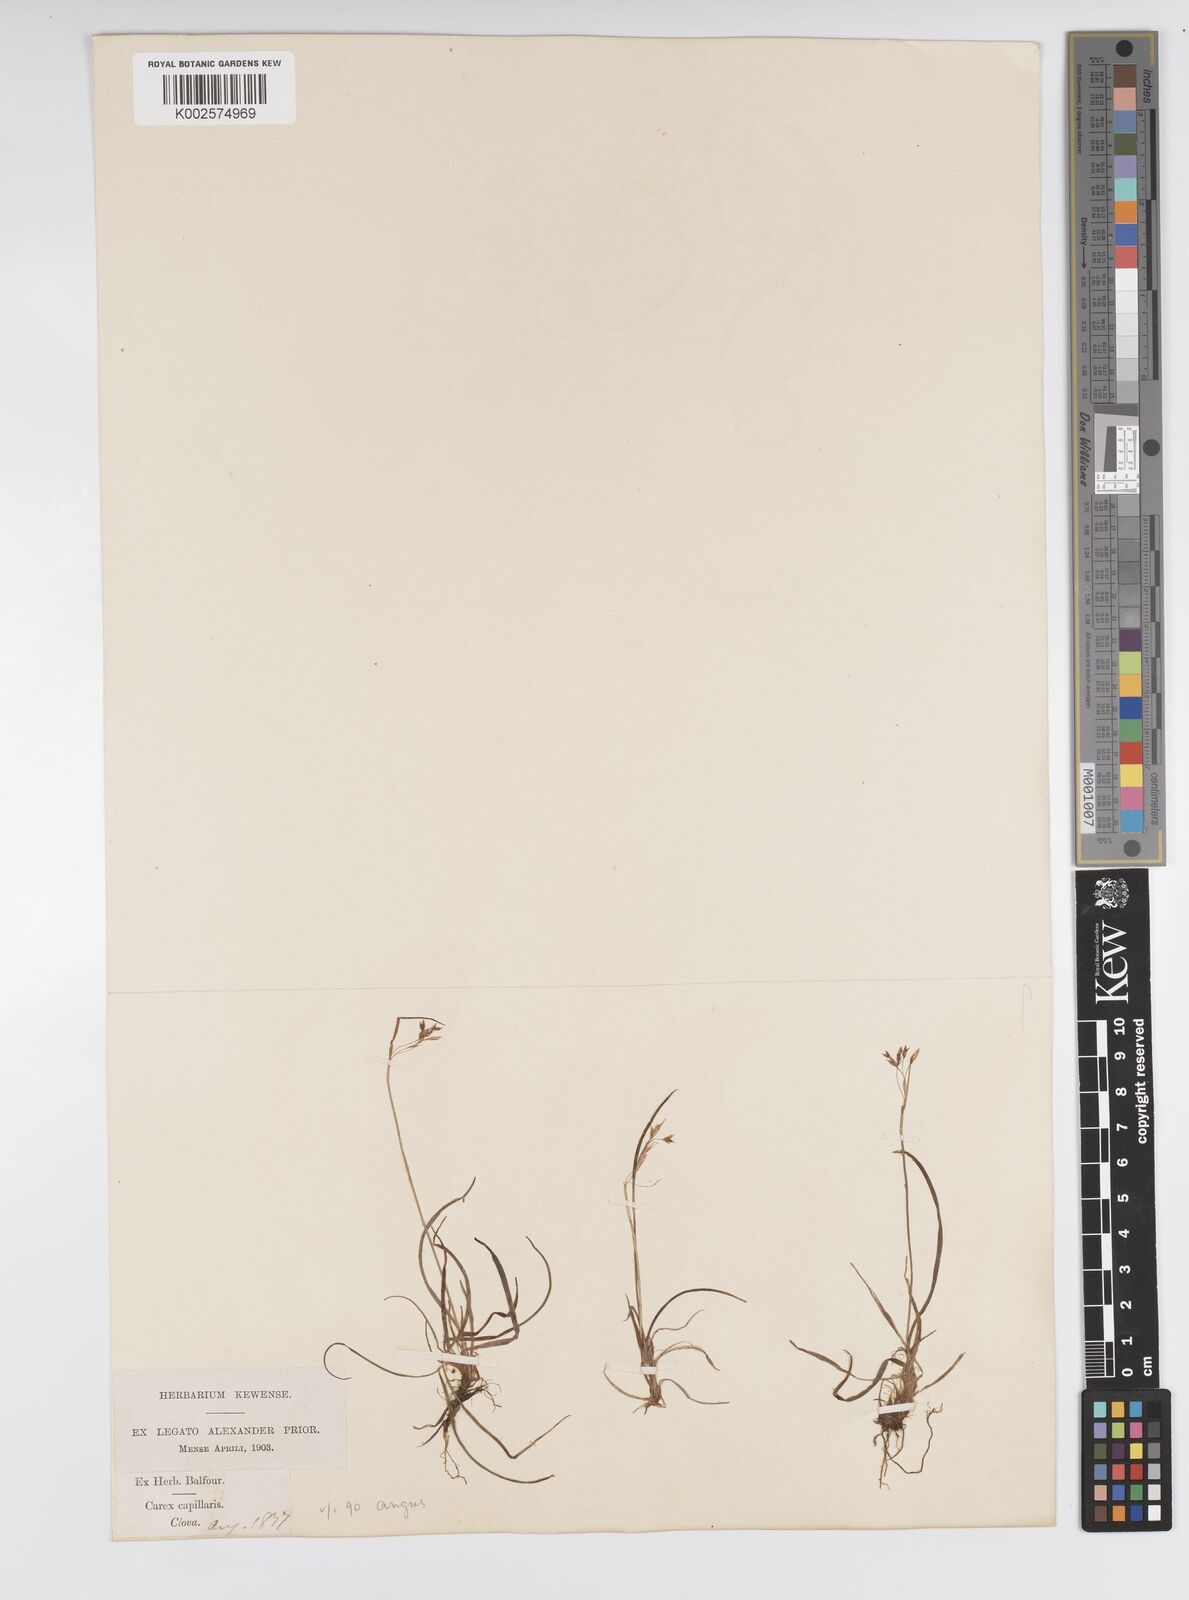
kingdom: Plantae
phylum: Tracheophyta
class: Liliopsida
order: Poales
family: Cyperaceae
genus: Carex
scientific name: Carex capillaris
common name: Hair sedge
